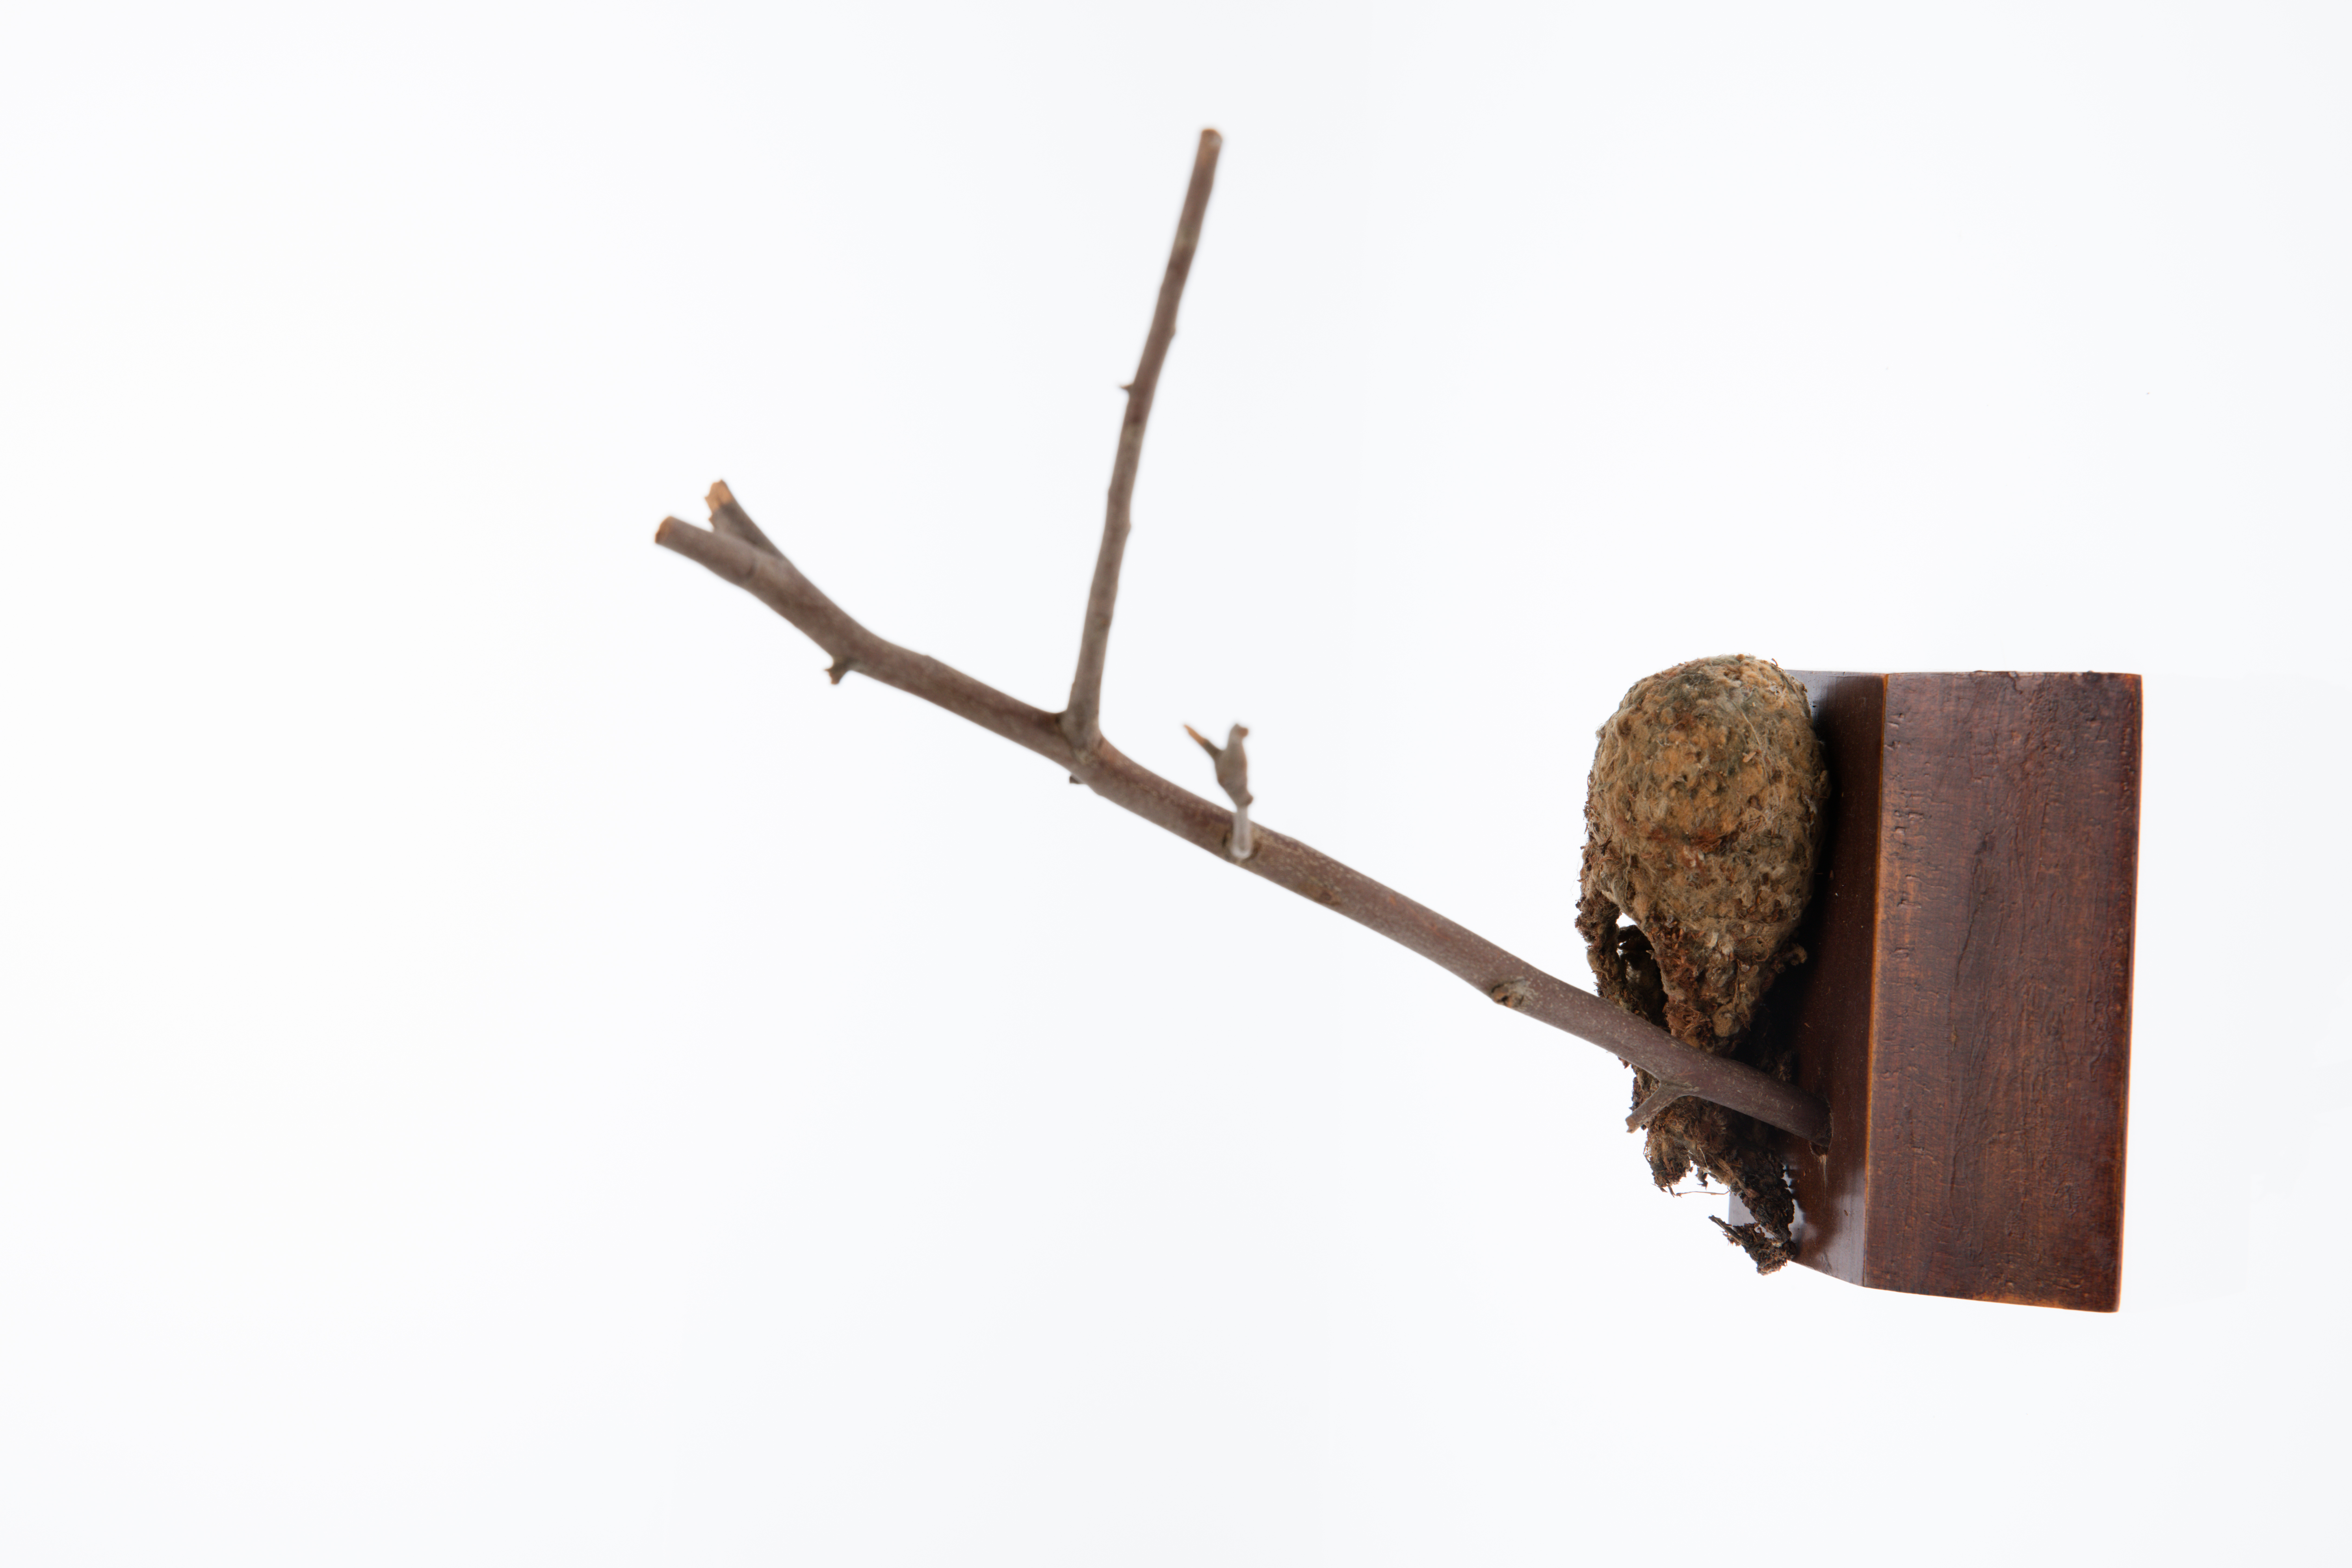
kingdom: Animalia
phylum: Chordata
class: Aves
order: Passeriformes
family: Dicaeidae
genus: Dicaeum
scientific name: Dicaeum hirundinaceum
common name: Mistletoebird
